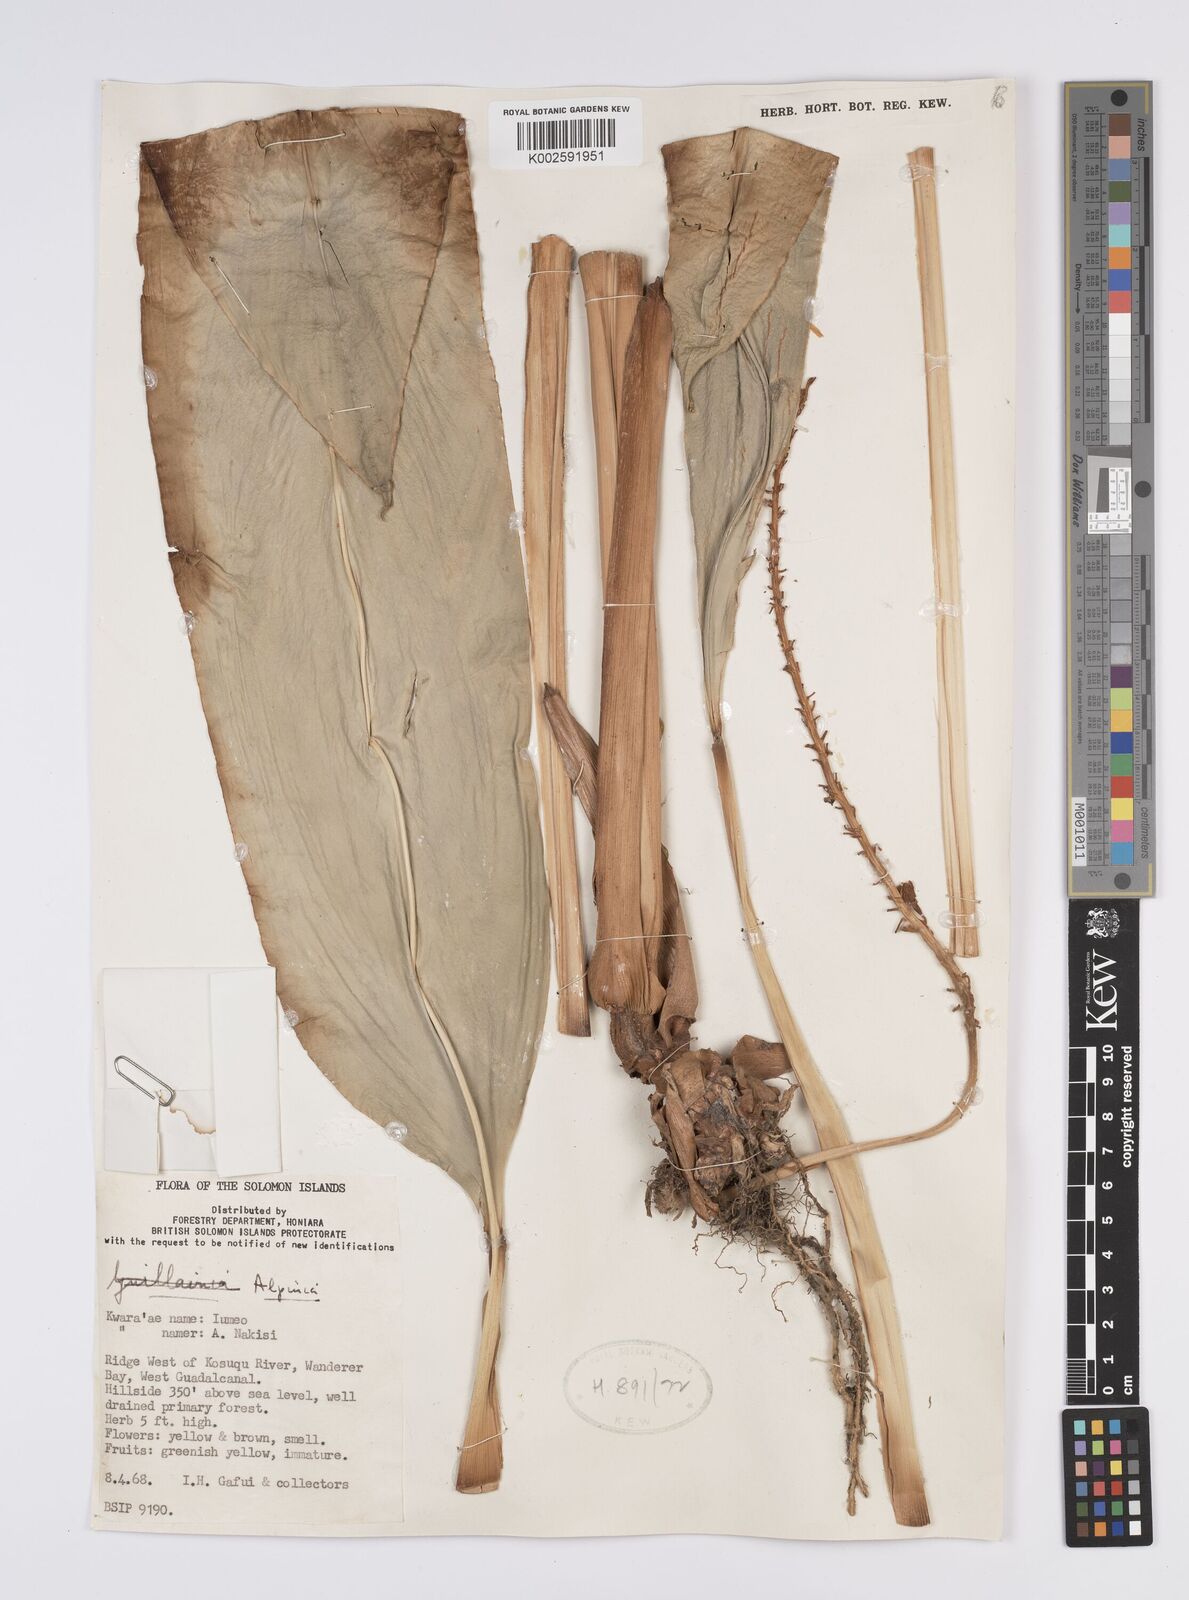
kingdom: Plantae
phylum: Tracheophyta
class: Liliopsida
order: Zingiberales
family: Zingiberaceae
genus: Alpinia
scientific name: Alpinia
